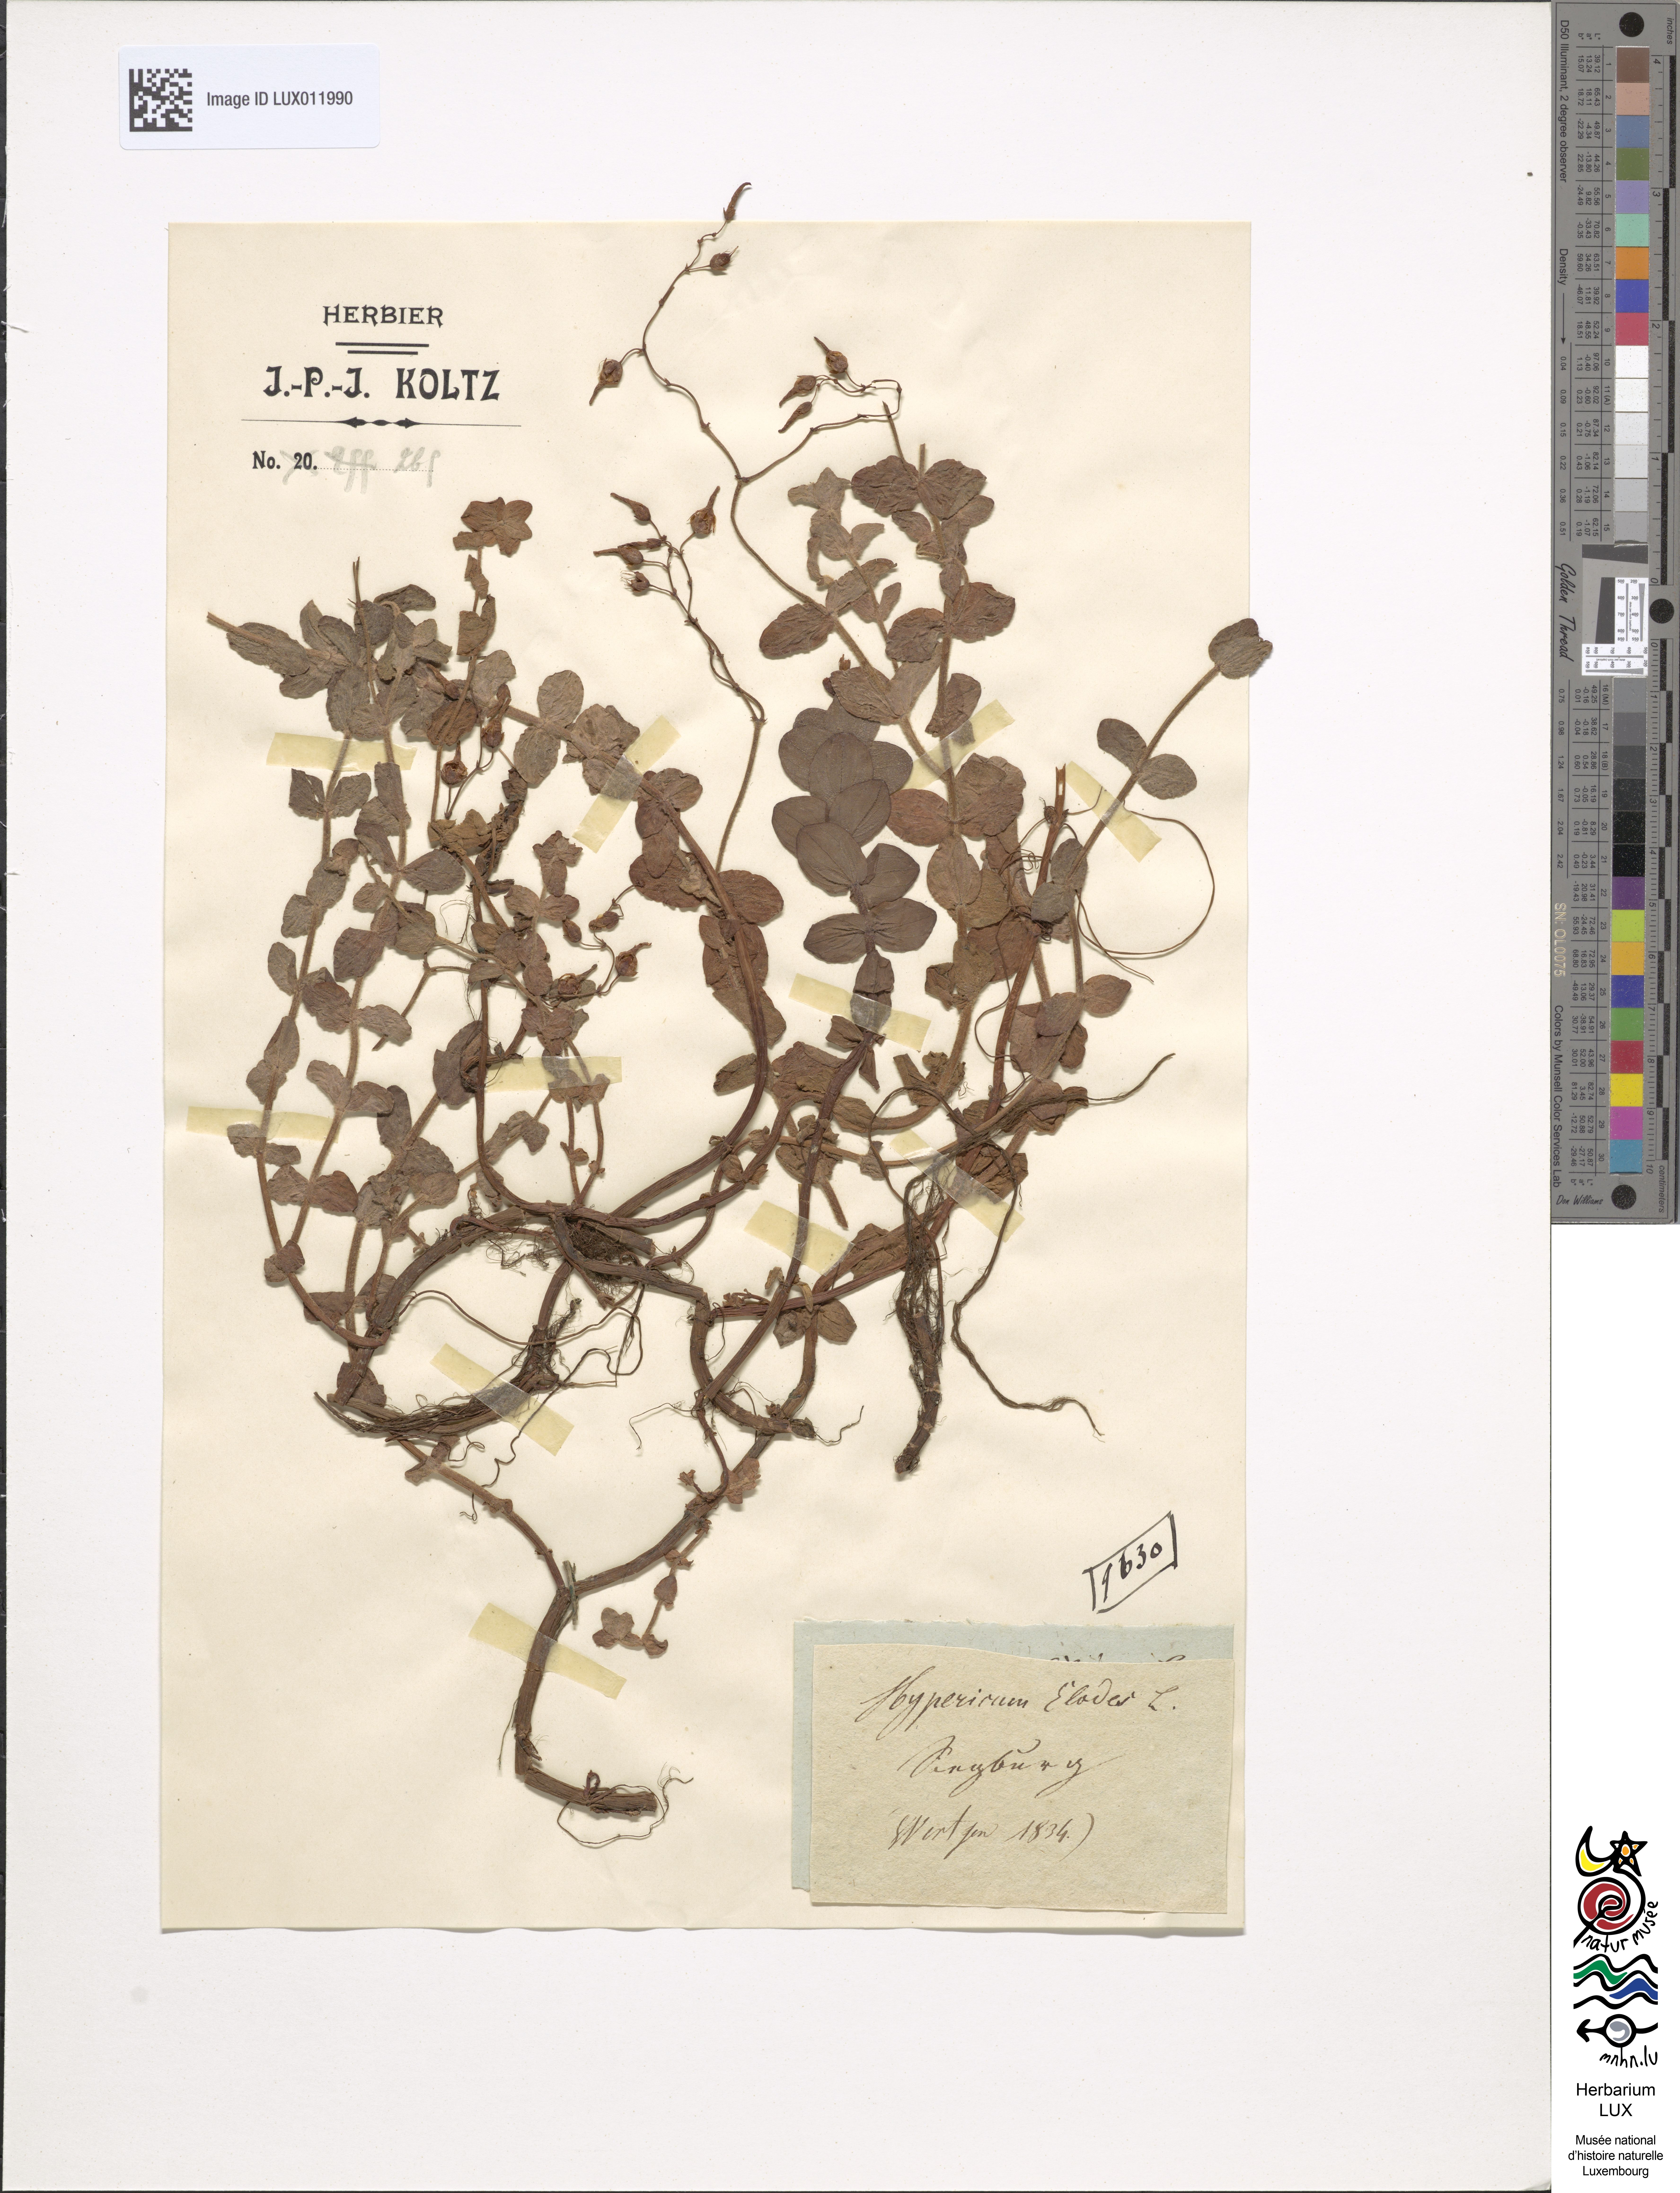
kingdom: Plantae
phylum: Tracheophyta
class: Magnoliopsida
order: Malpighiales
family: Hypericaceae
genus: Hypericum
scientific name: Hypericum elodes
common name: Marsh st. john's-wort
